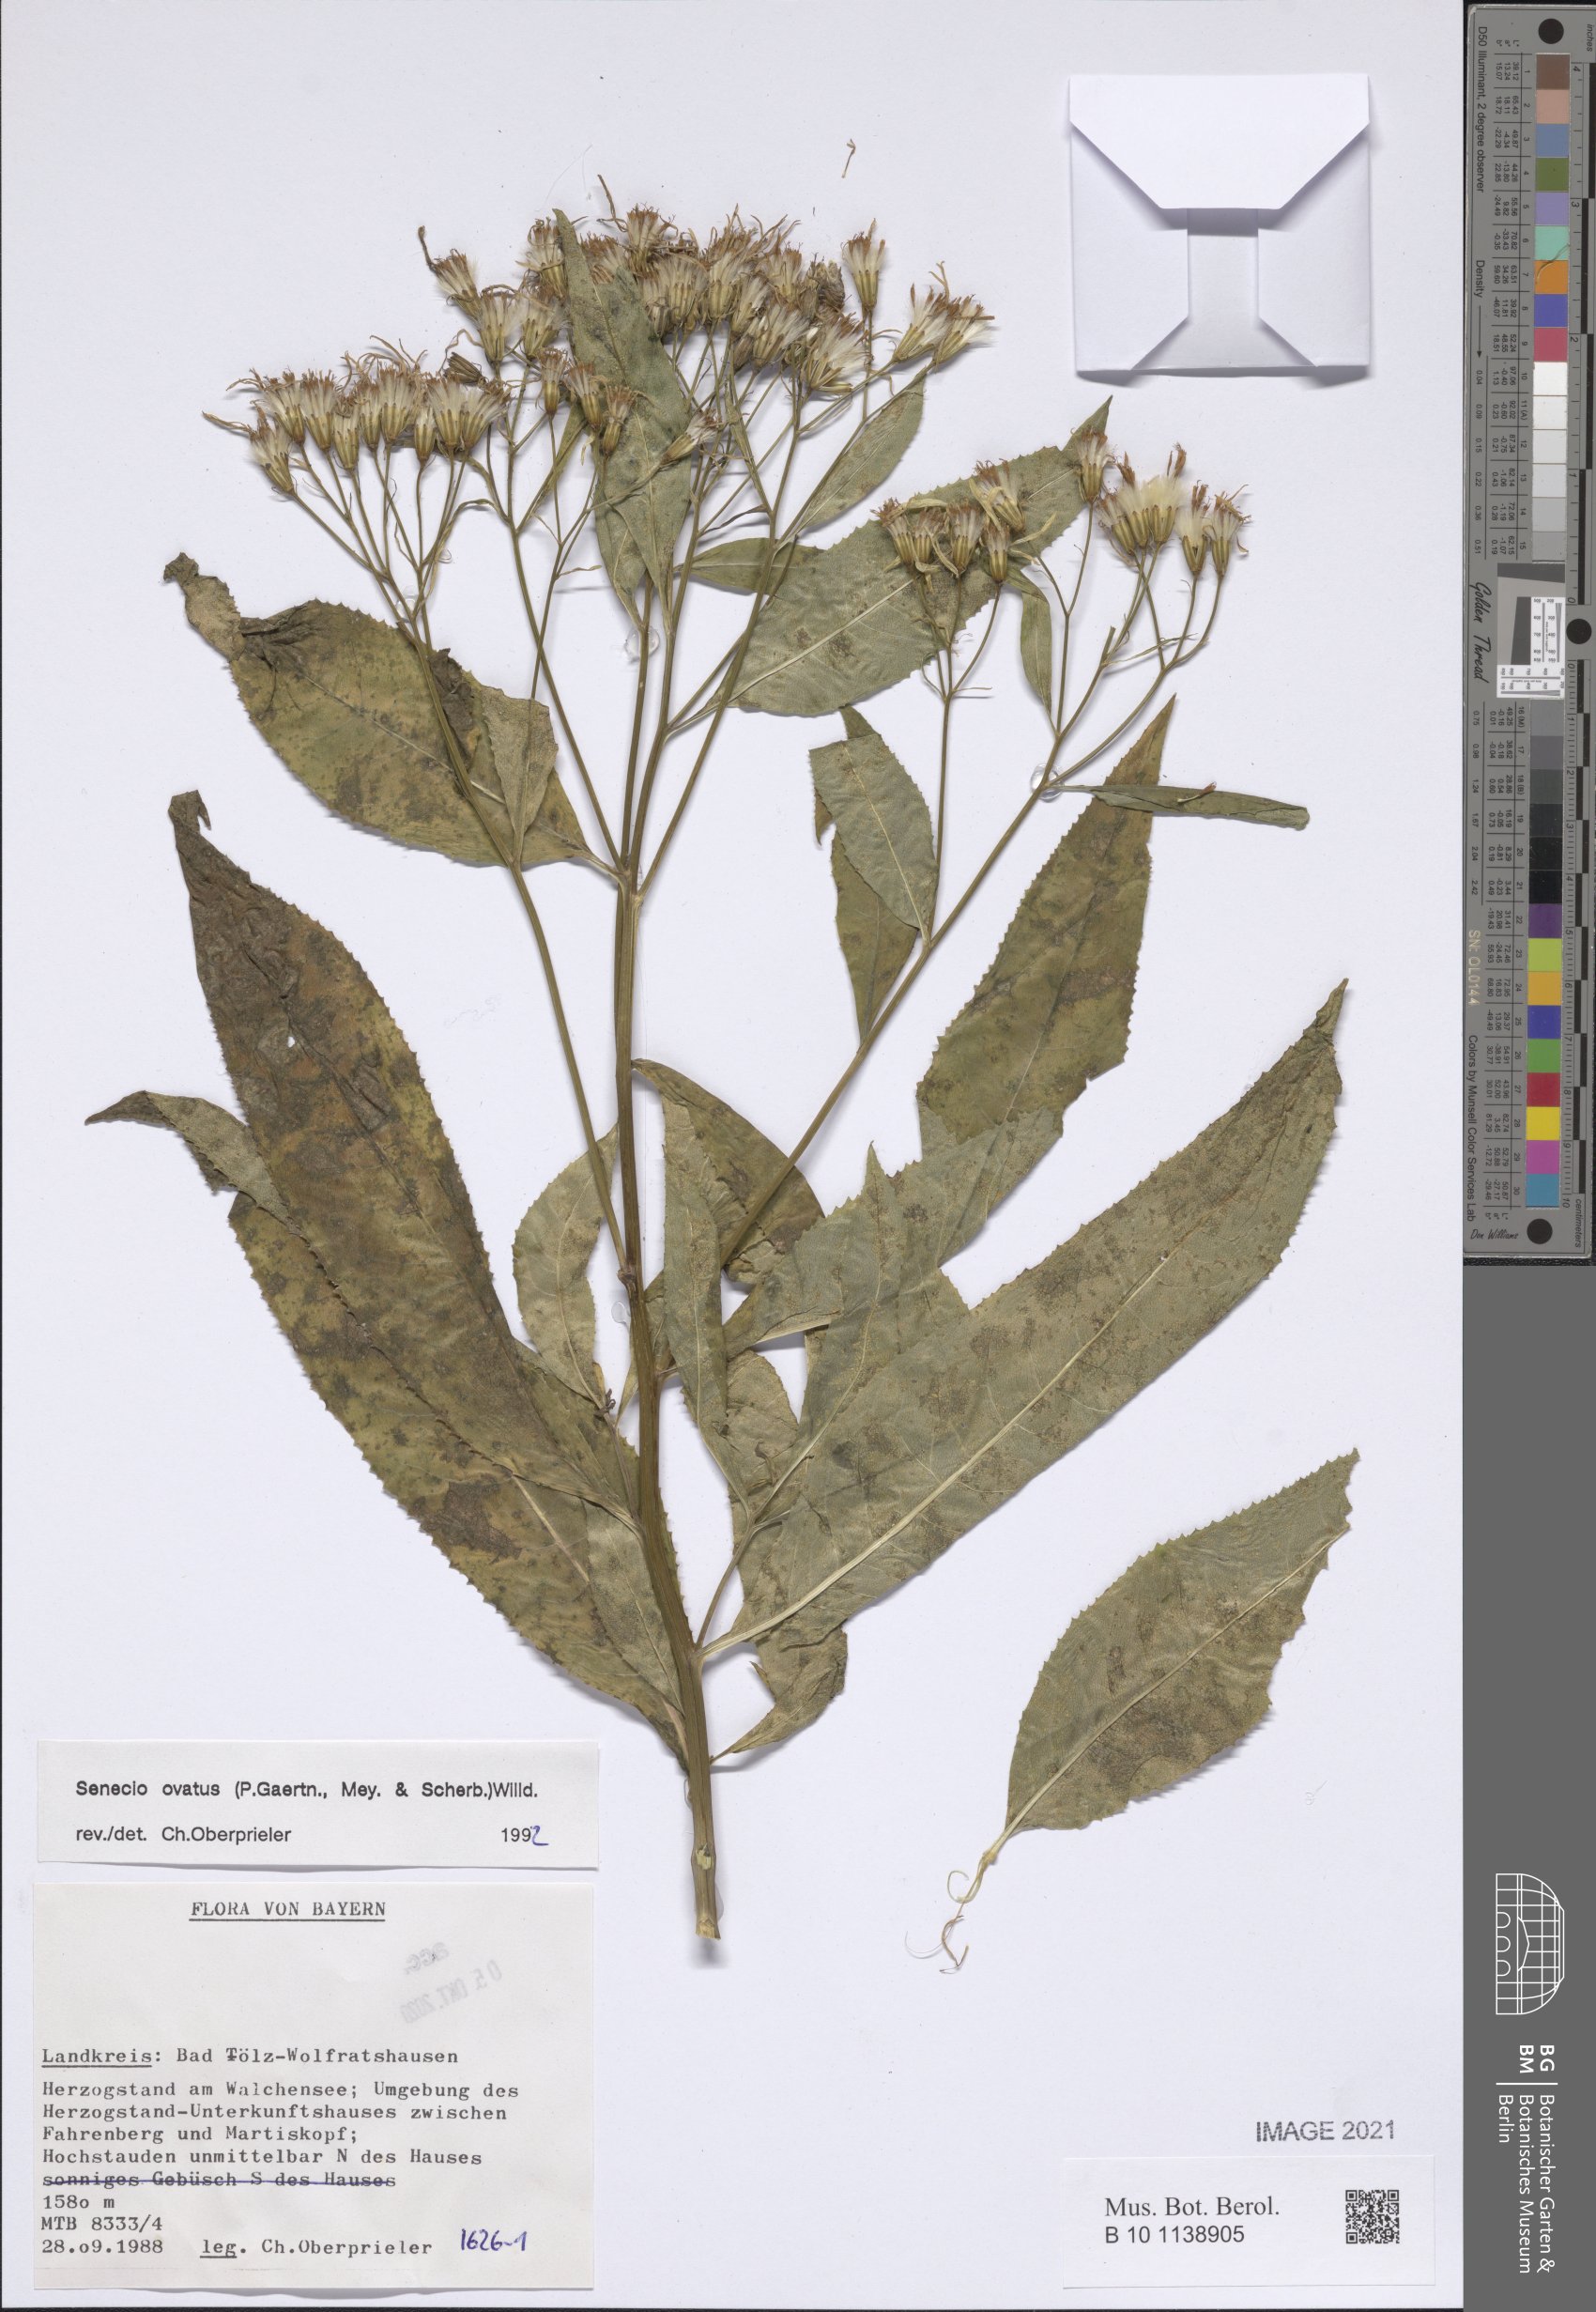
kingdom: Plantae
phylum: Tracheophyta
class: Magnoliopsida
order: Asterales
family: Asteraceae
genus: Senecio
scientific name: Senecio ovatus
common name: Wood ragwort
